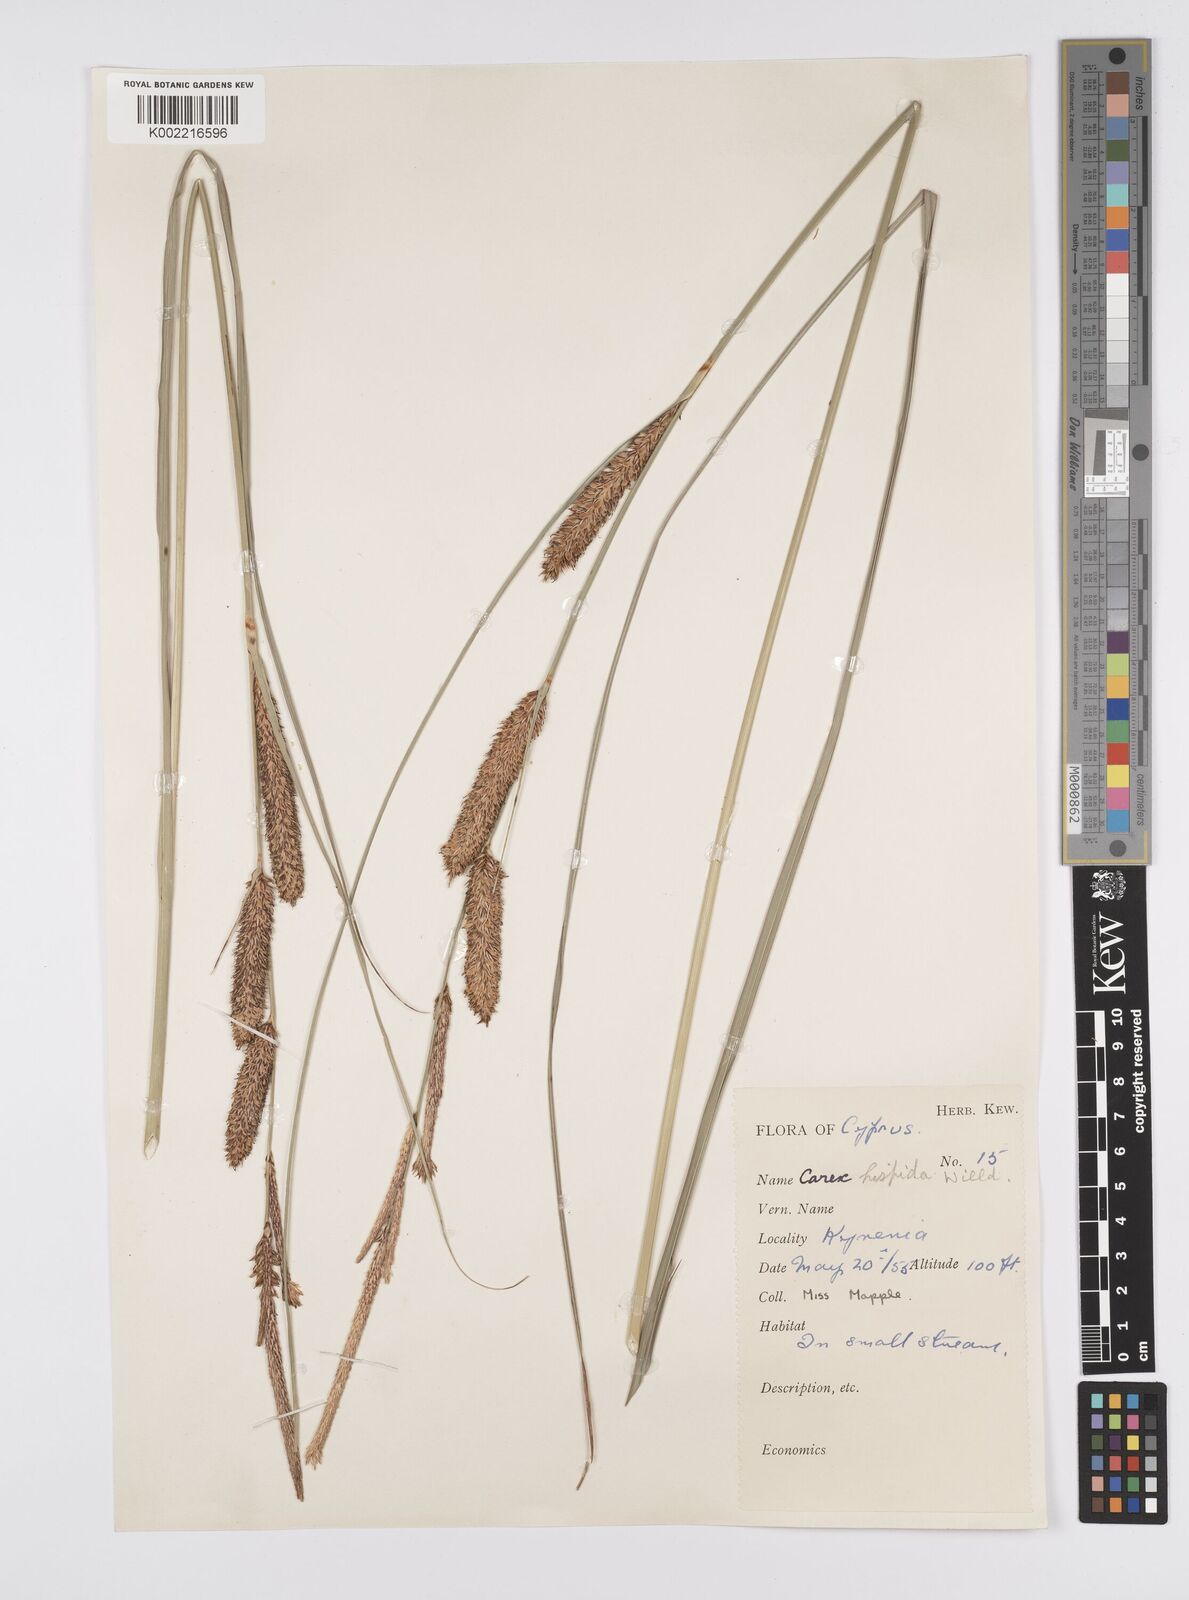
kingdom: Plantae
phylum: Tracheophyta
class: Liliopsida
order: Poales
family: Cyperaceae
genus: Carex
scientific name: Carex hispida
